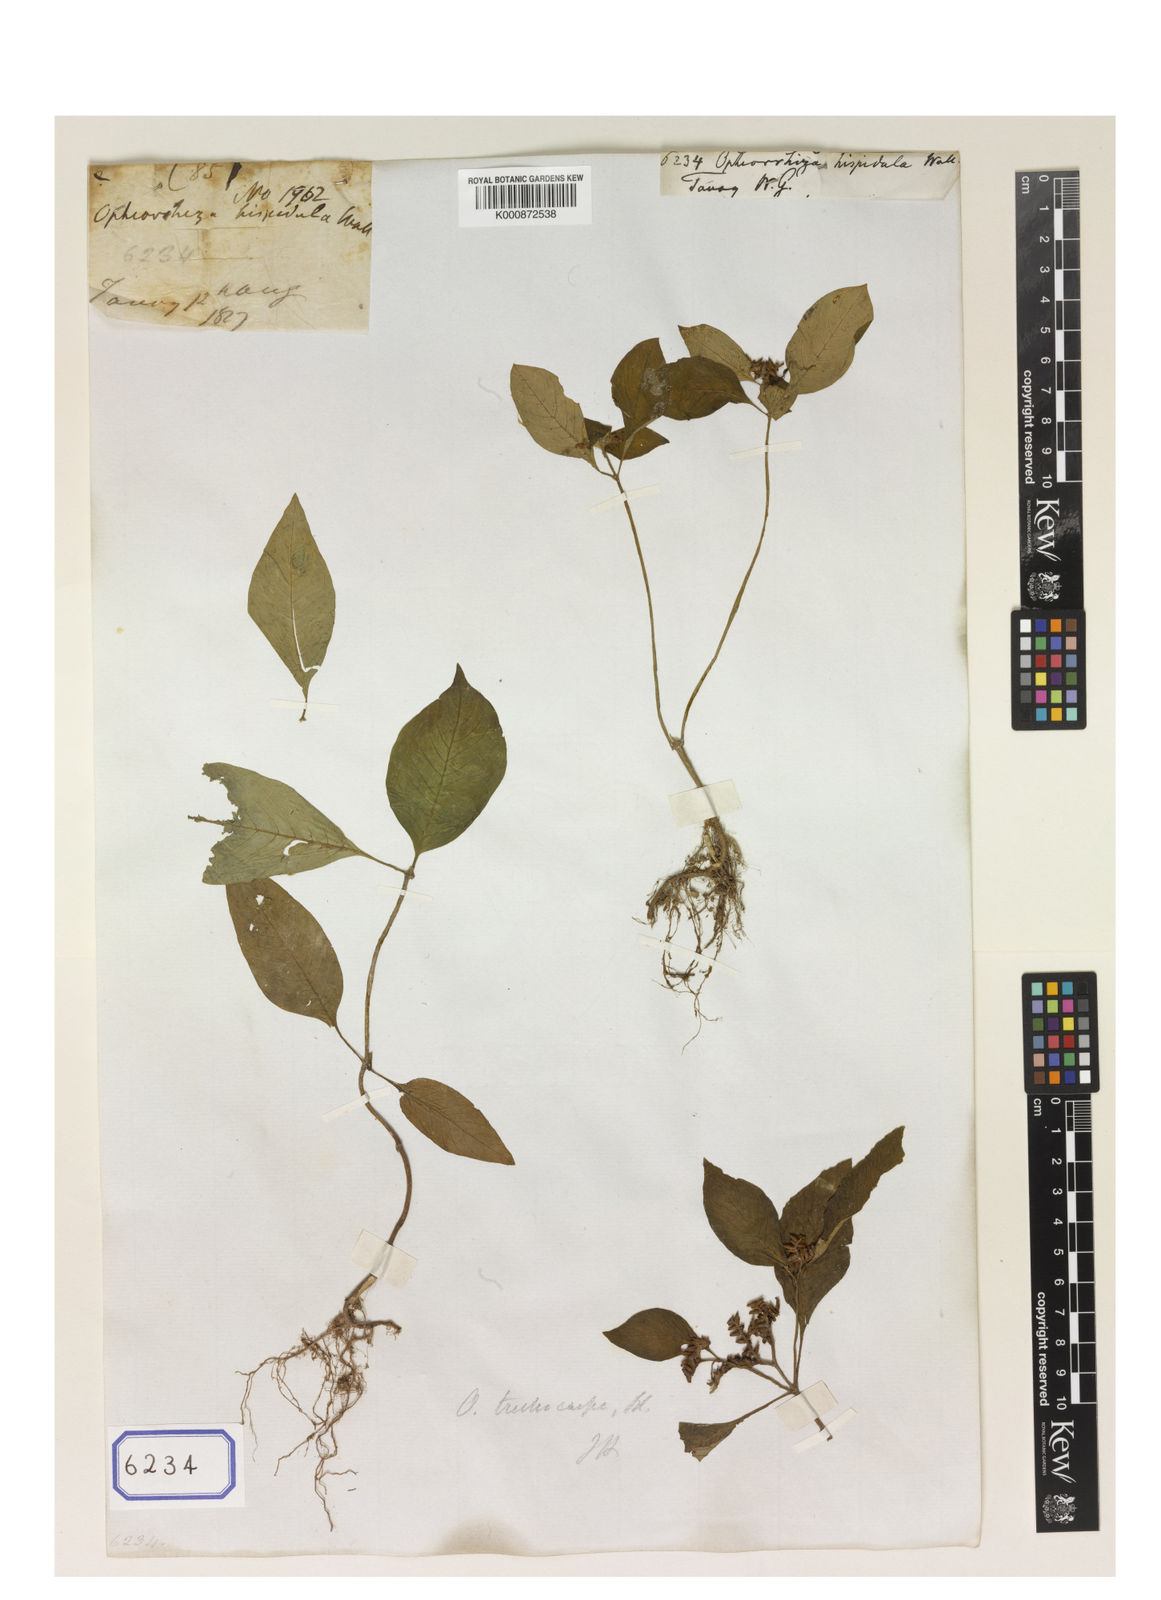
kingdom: Plantae
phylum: Tracheophyta
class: Magnoliopsida
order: Gentianales
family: Rubiaceae
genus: Ophiorrhiza
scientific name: Ophiorrhiza trichocarpos
